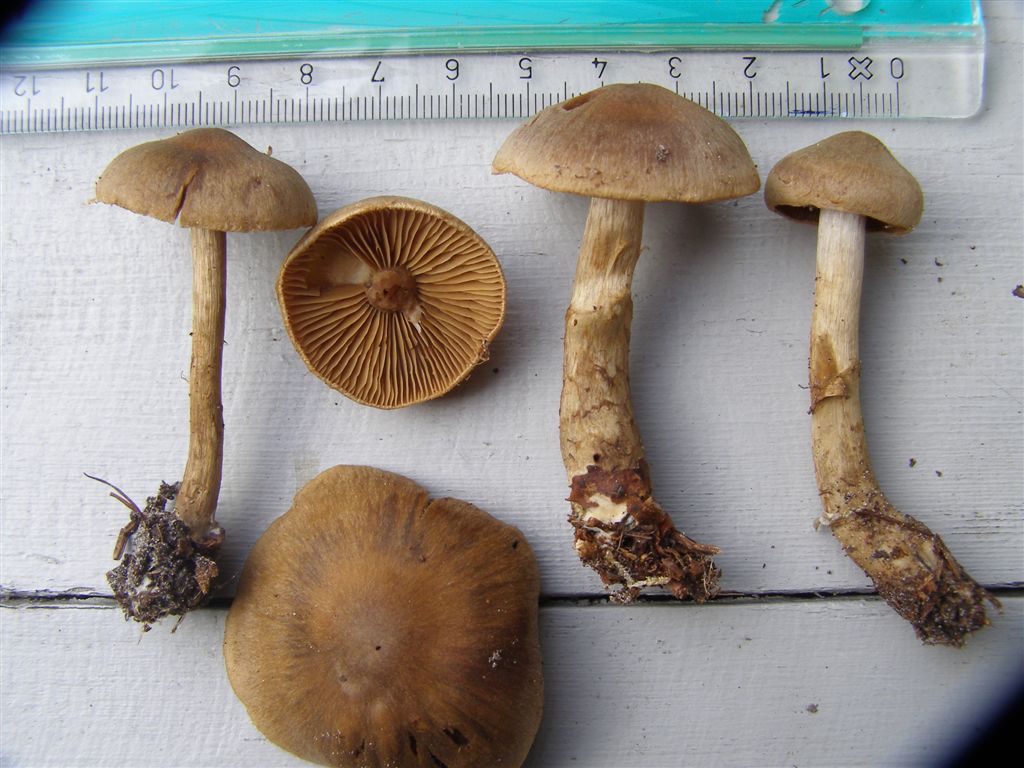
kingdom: Fungi
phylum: Basidiomycota
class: Agaricomycetes
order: Agaricales
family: Cortinariaceae
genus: Cortinarius
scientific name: Cortinarius raphanoides
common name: ræddike-slørhat
